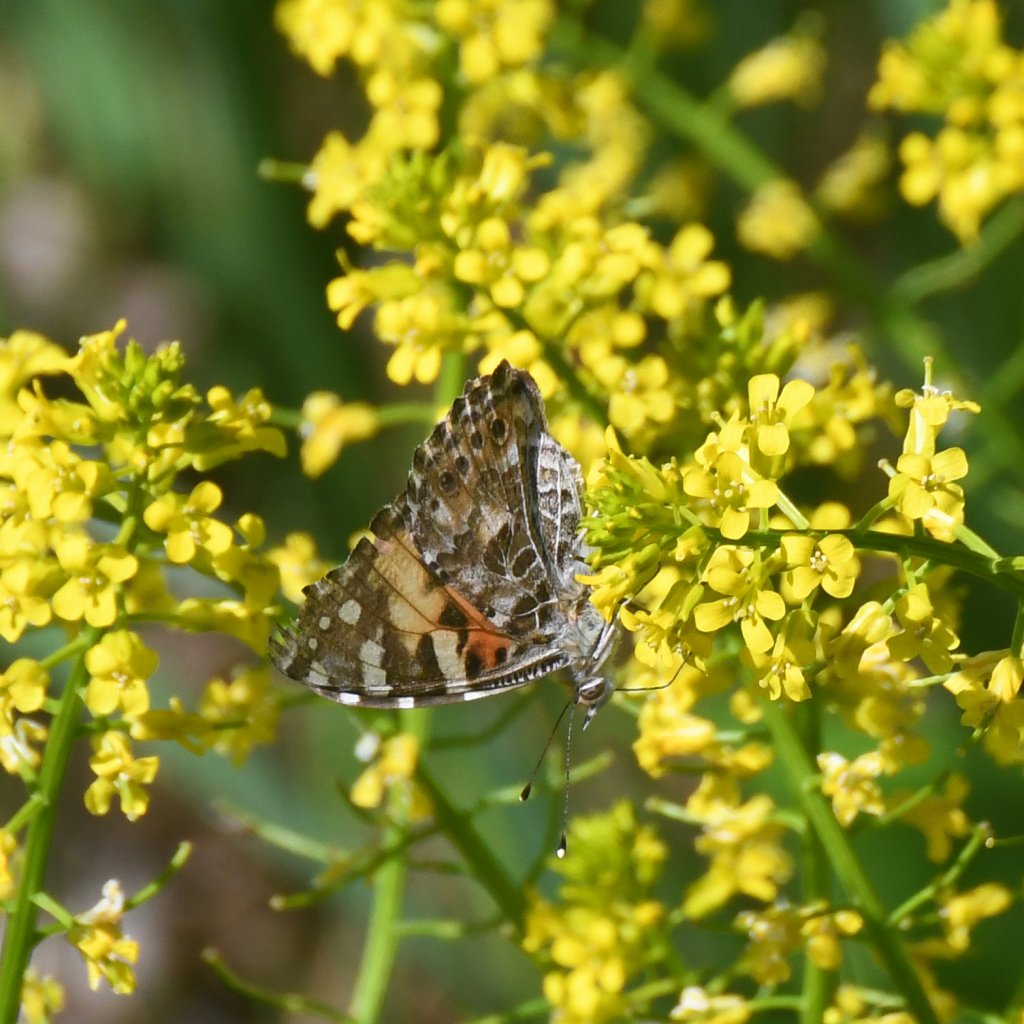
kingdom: Animalia
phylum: Arthropoda
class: Insecta
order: Lepidoptera
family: Nymphalidae
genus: Vanessa
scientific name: Vanessa cardui
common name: Painted Lady
